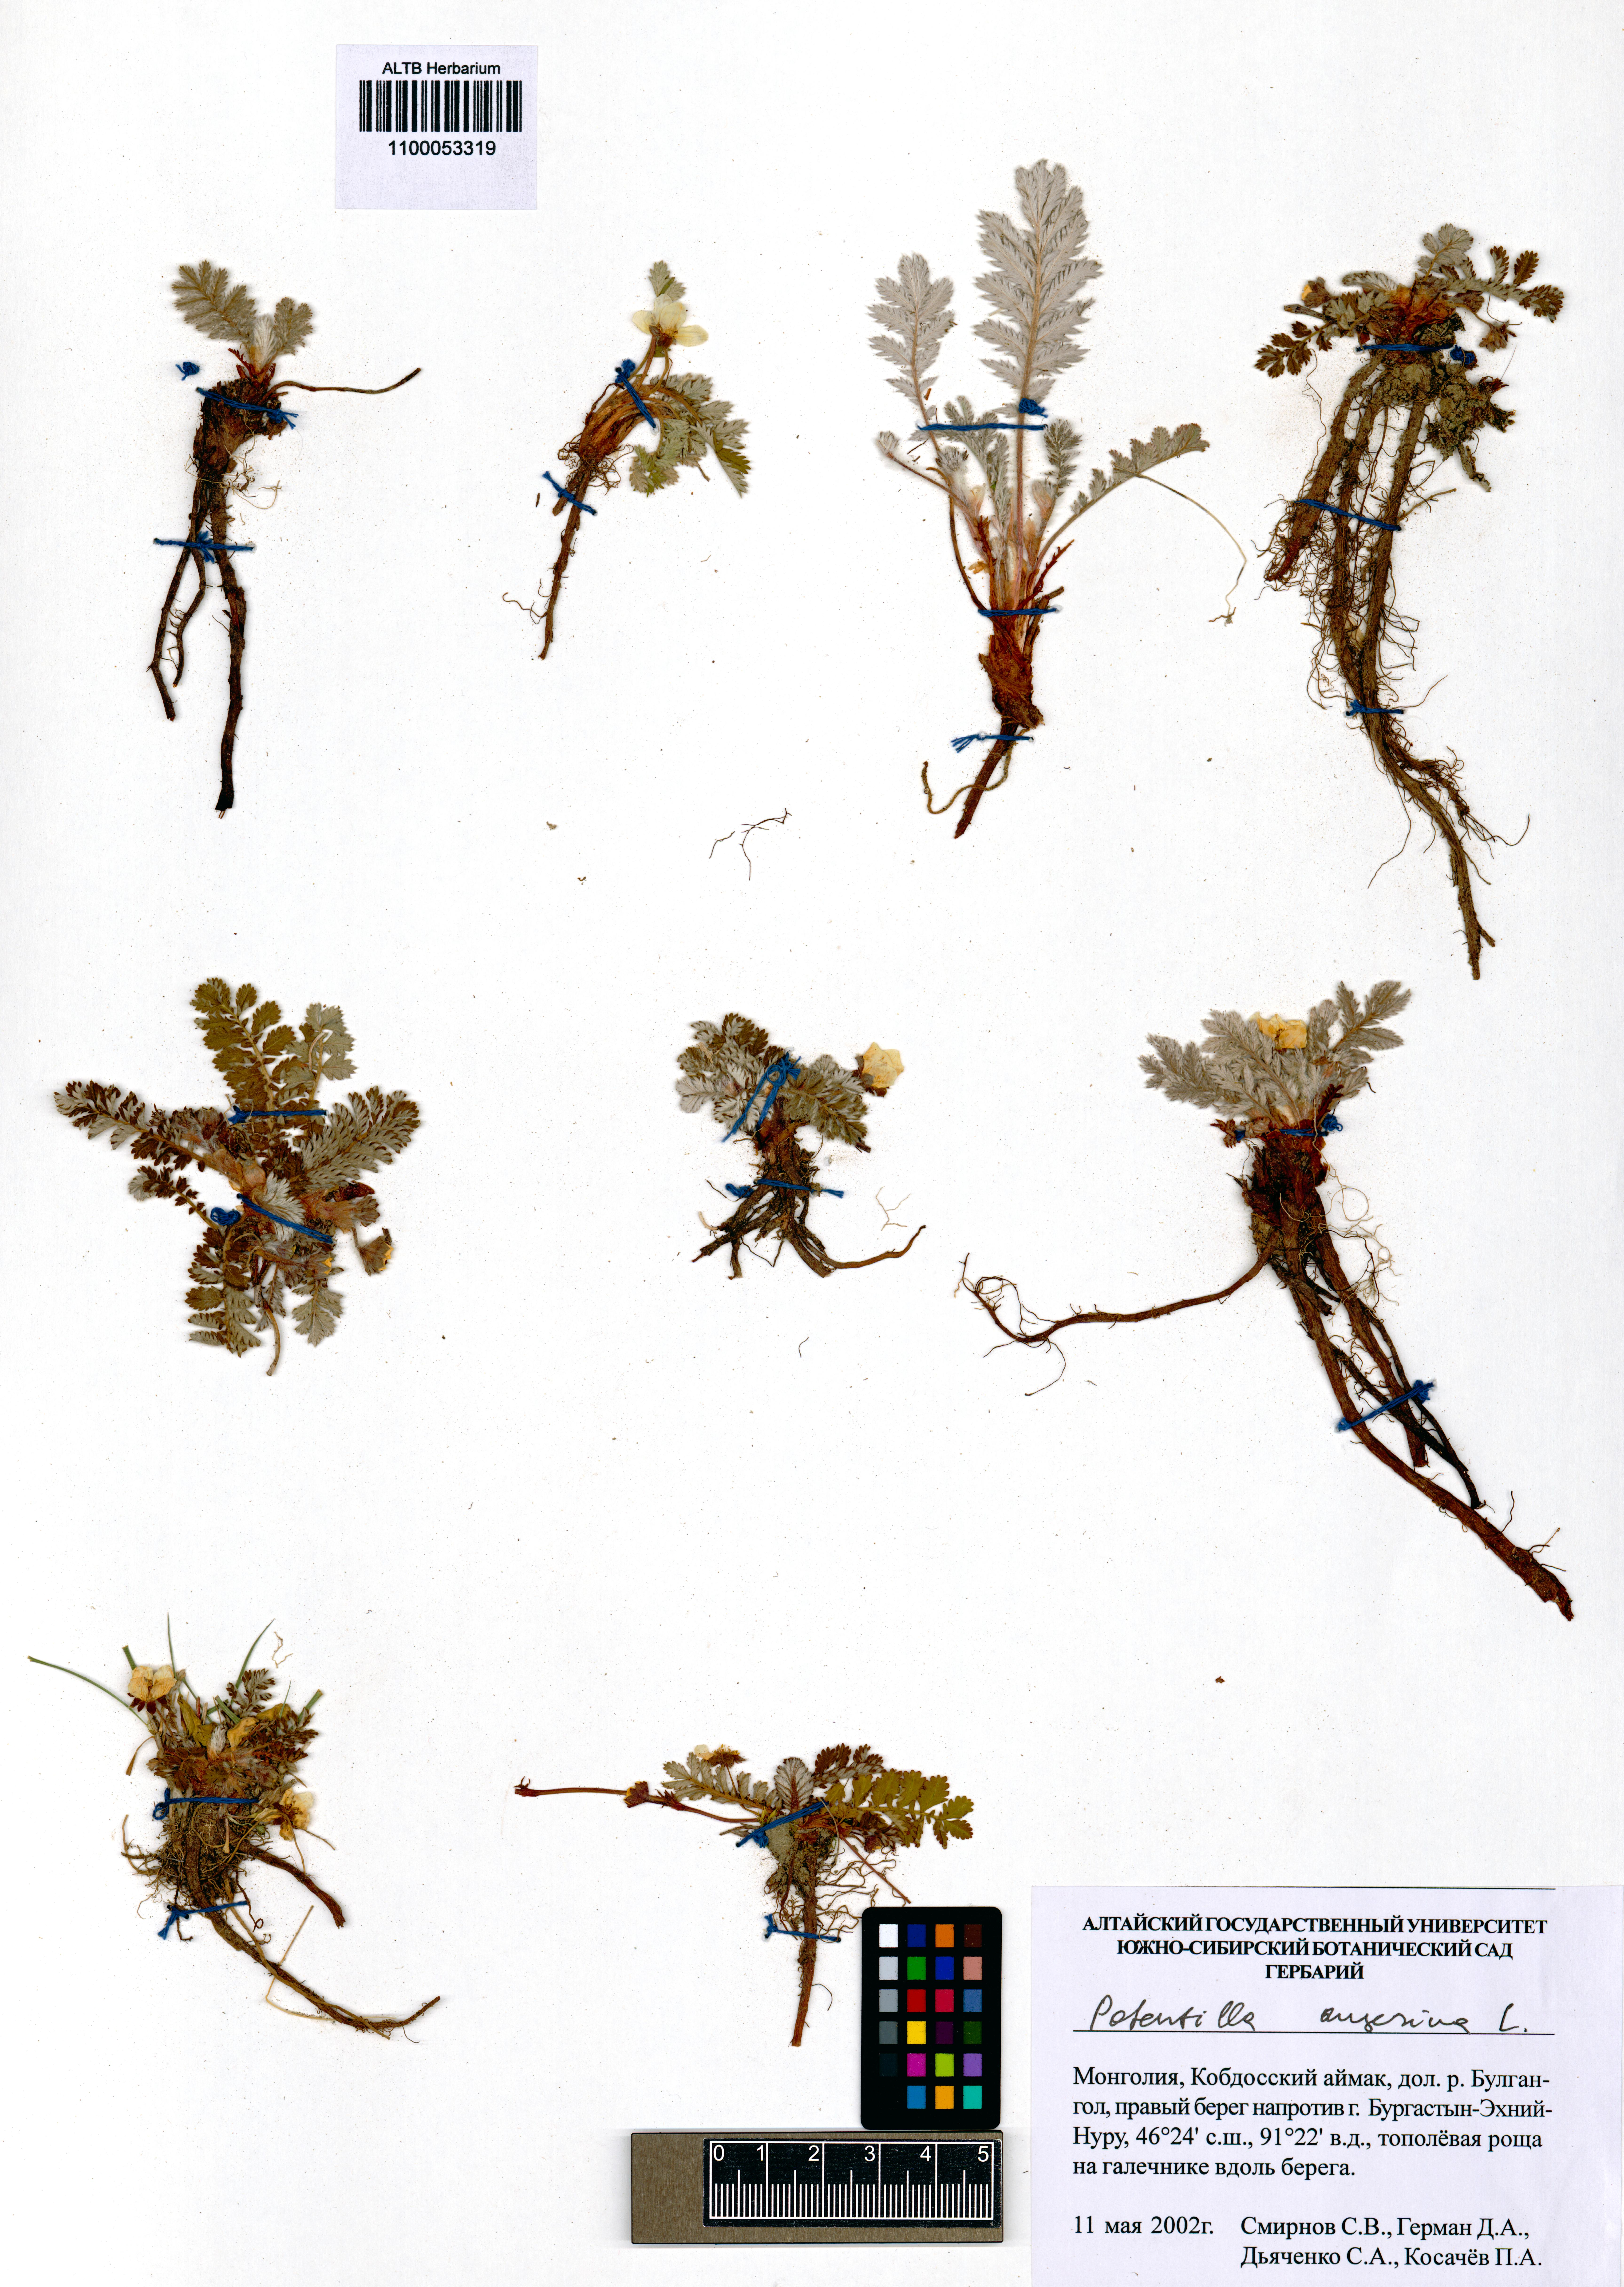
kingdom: Plantae
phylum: Tracheophyta
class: Magnoliopsida
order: Rosales
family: Rosaceae
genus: Argentina
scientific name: Argentina anserina
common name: Common silverweed
